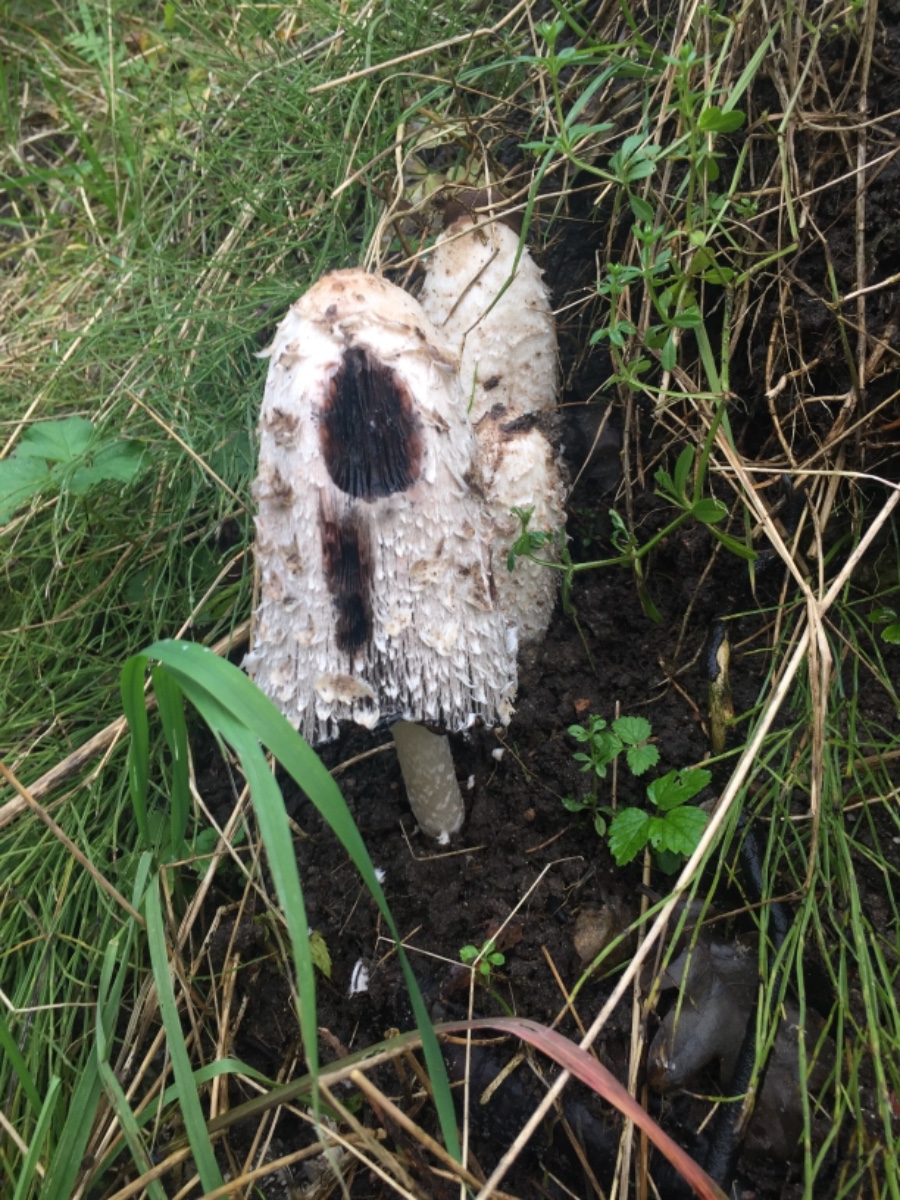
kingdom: Fungi
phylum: Basidiomycota
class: Agaricomycetes
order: Agaricales
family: Agaricaceae
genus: Coprinus
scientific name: Coprinus comatus
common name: stor parykhat
